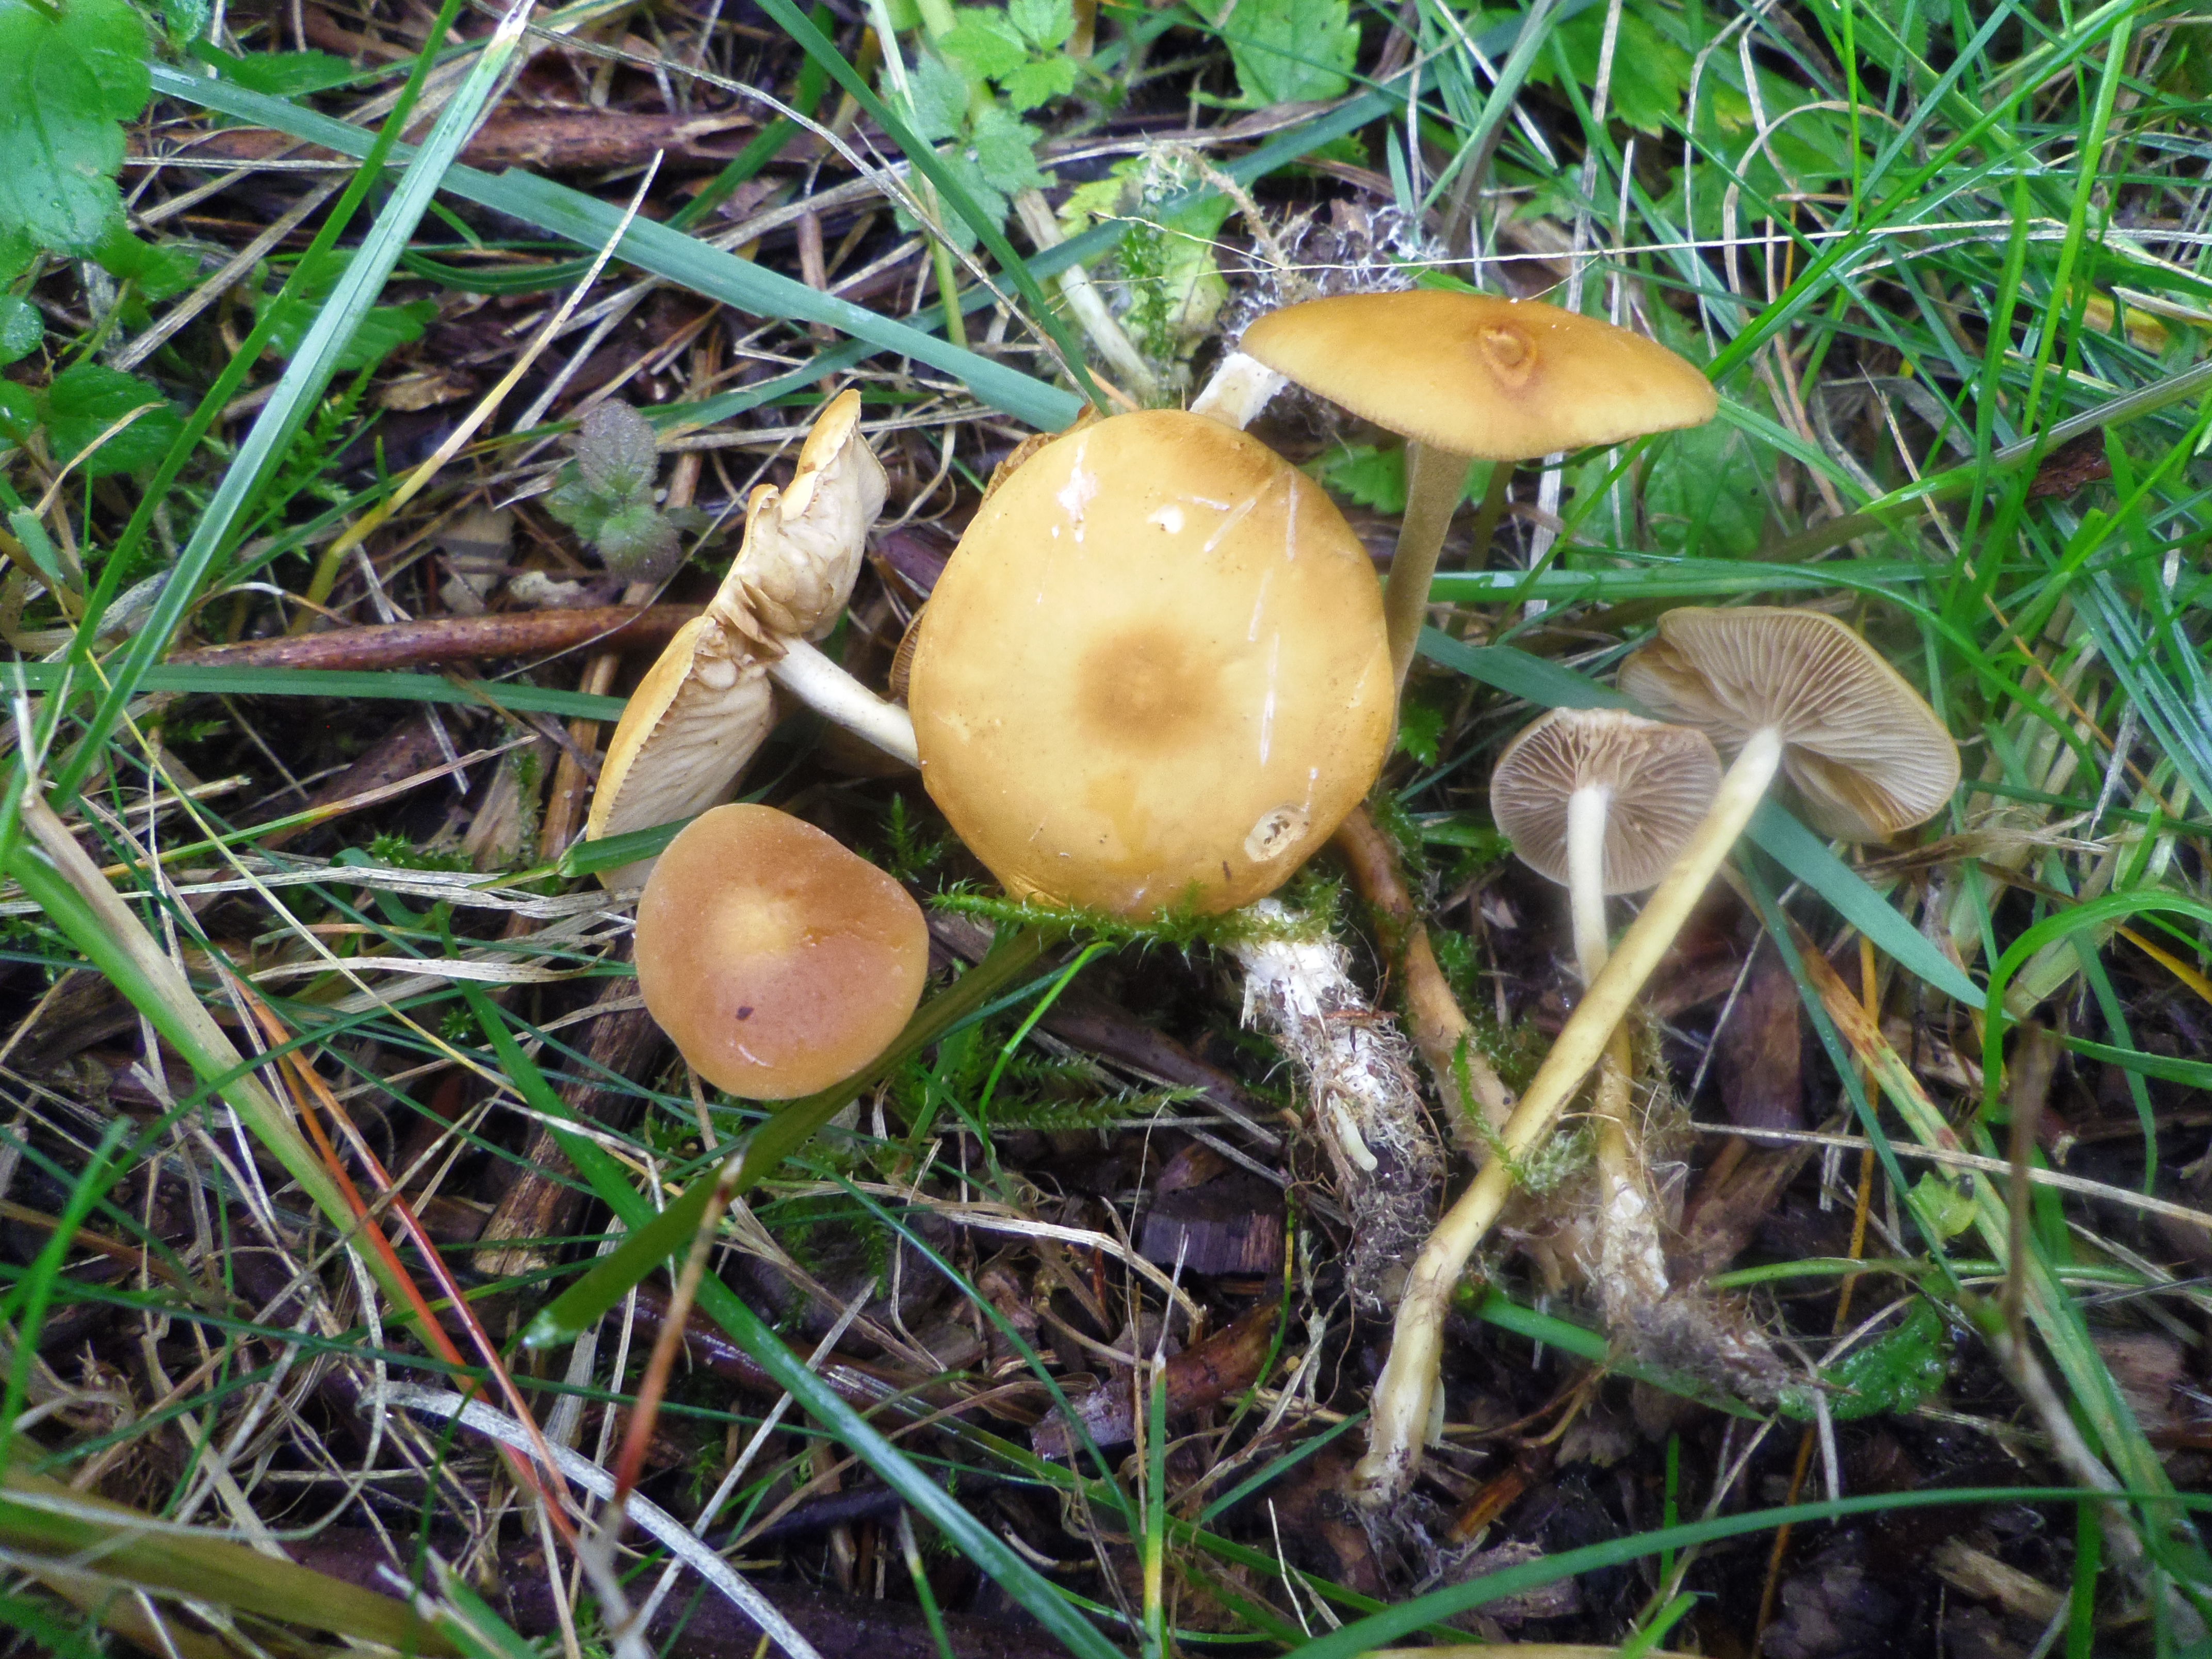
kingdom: Fungi
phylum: Basidiomycota
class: Agaricomycetes
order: Agaricales
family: Strophariaceae
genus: Agrocybe
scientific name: Agrocybe arvalis
